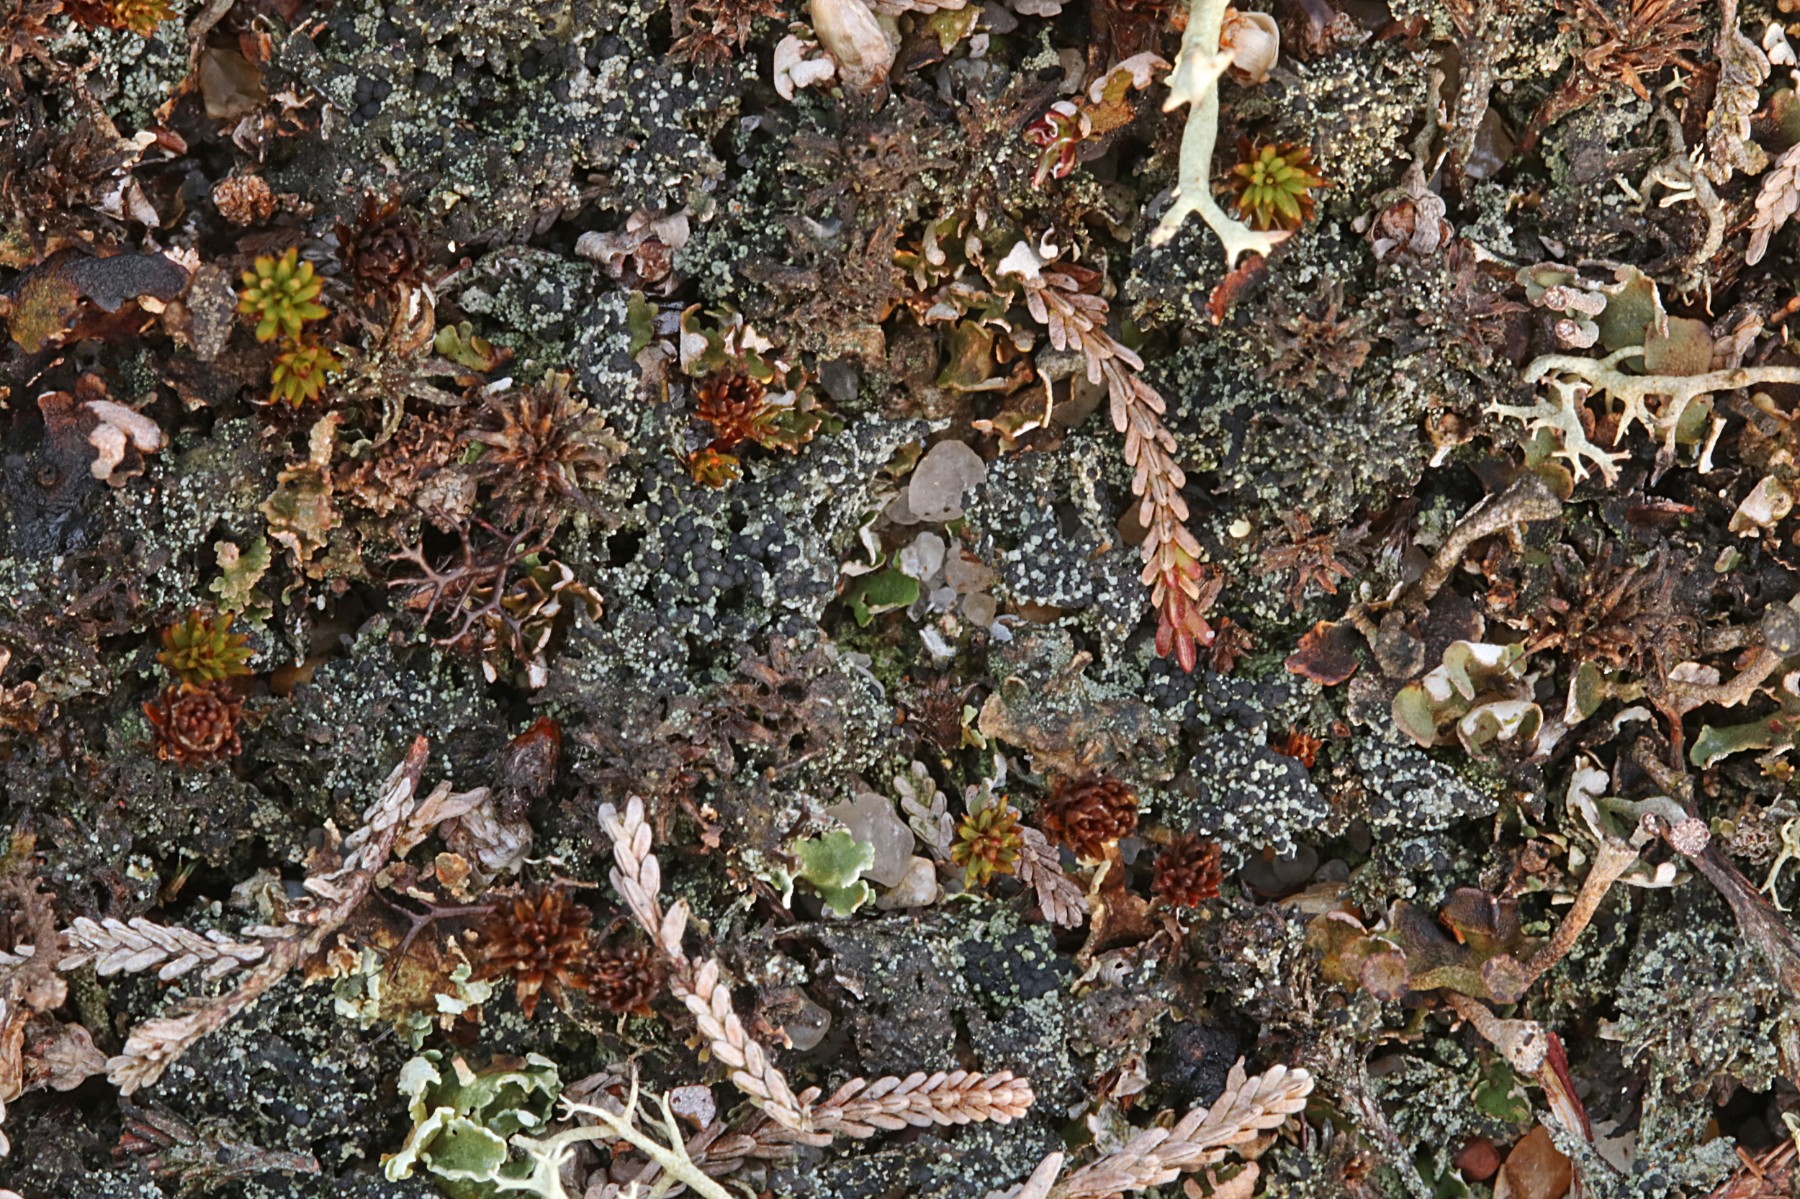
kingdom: Fungi
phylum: Ascomycota
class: Lecanoromycetes
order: Lecanorales
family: Byssolomataceae
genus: Micarea
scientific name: Micarea lignaria
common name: tørve-knaplav
